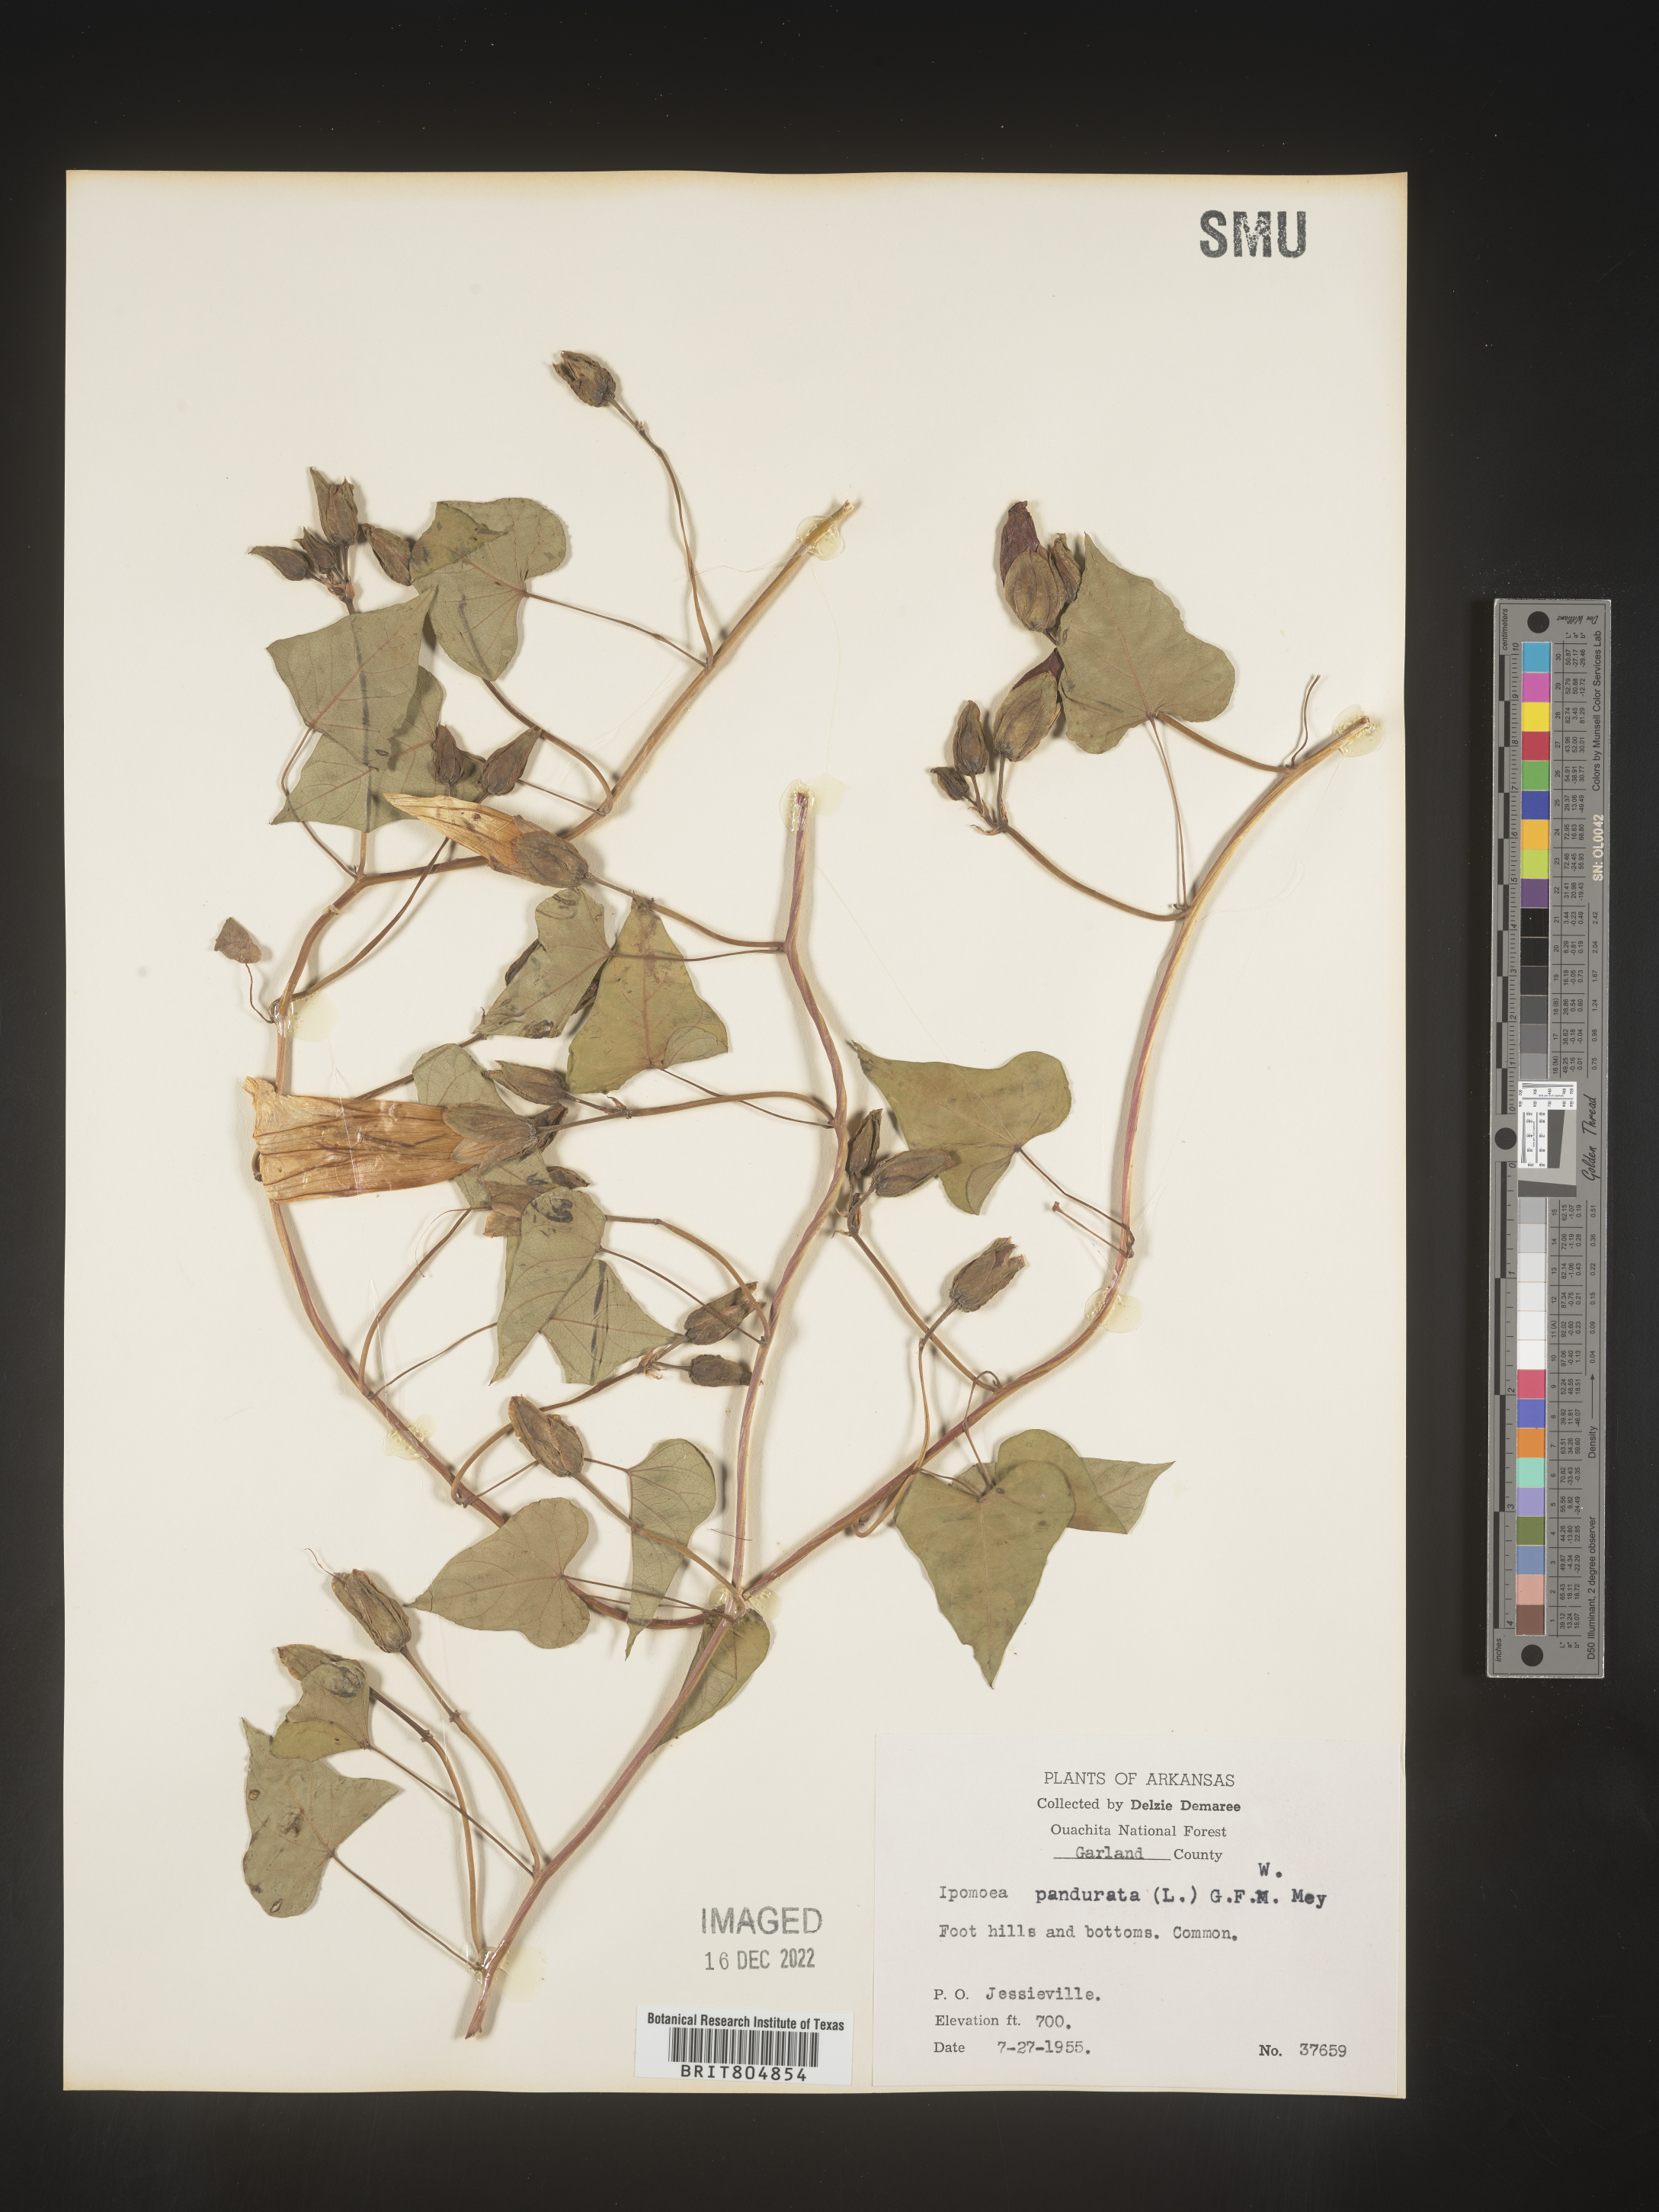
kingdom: Plantae
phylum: Tracheophyta
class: Magnoliopsida
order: Solanales
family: Convolvulaceae
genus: Ipomoea
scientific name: Ipomoea pandurata
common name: Man-of-the-earth
